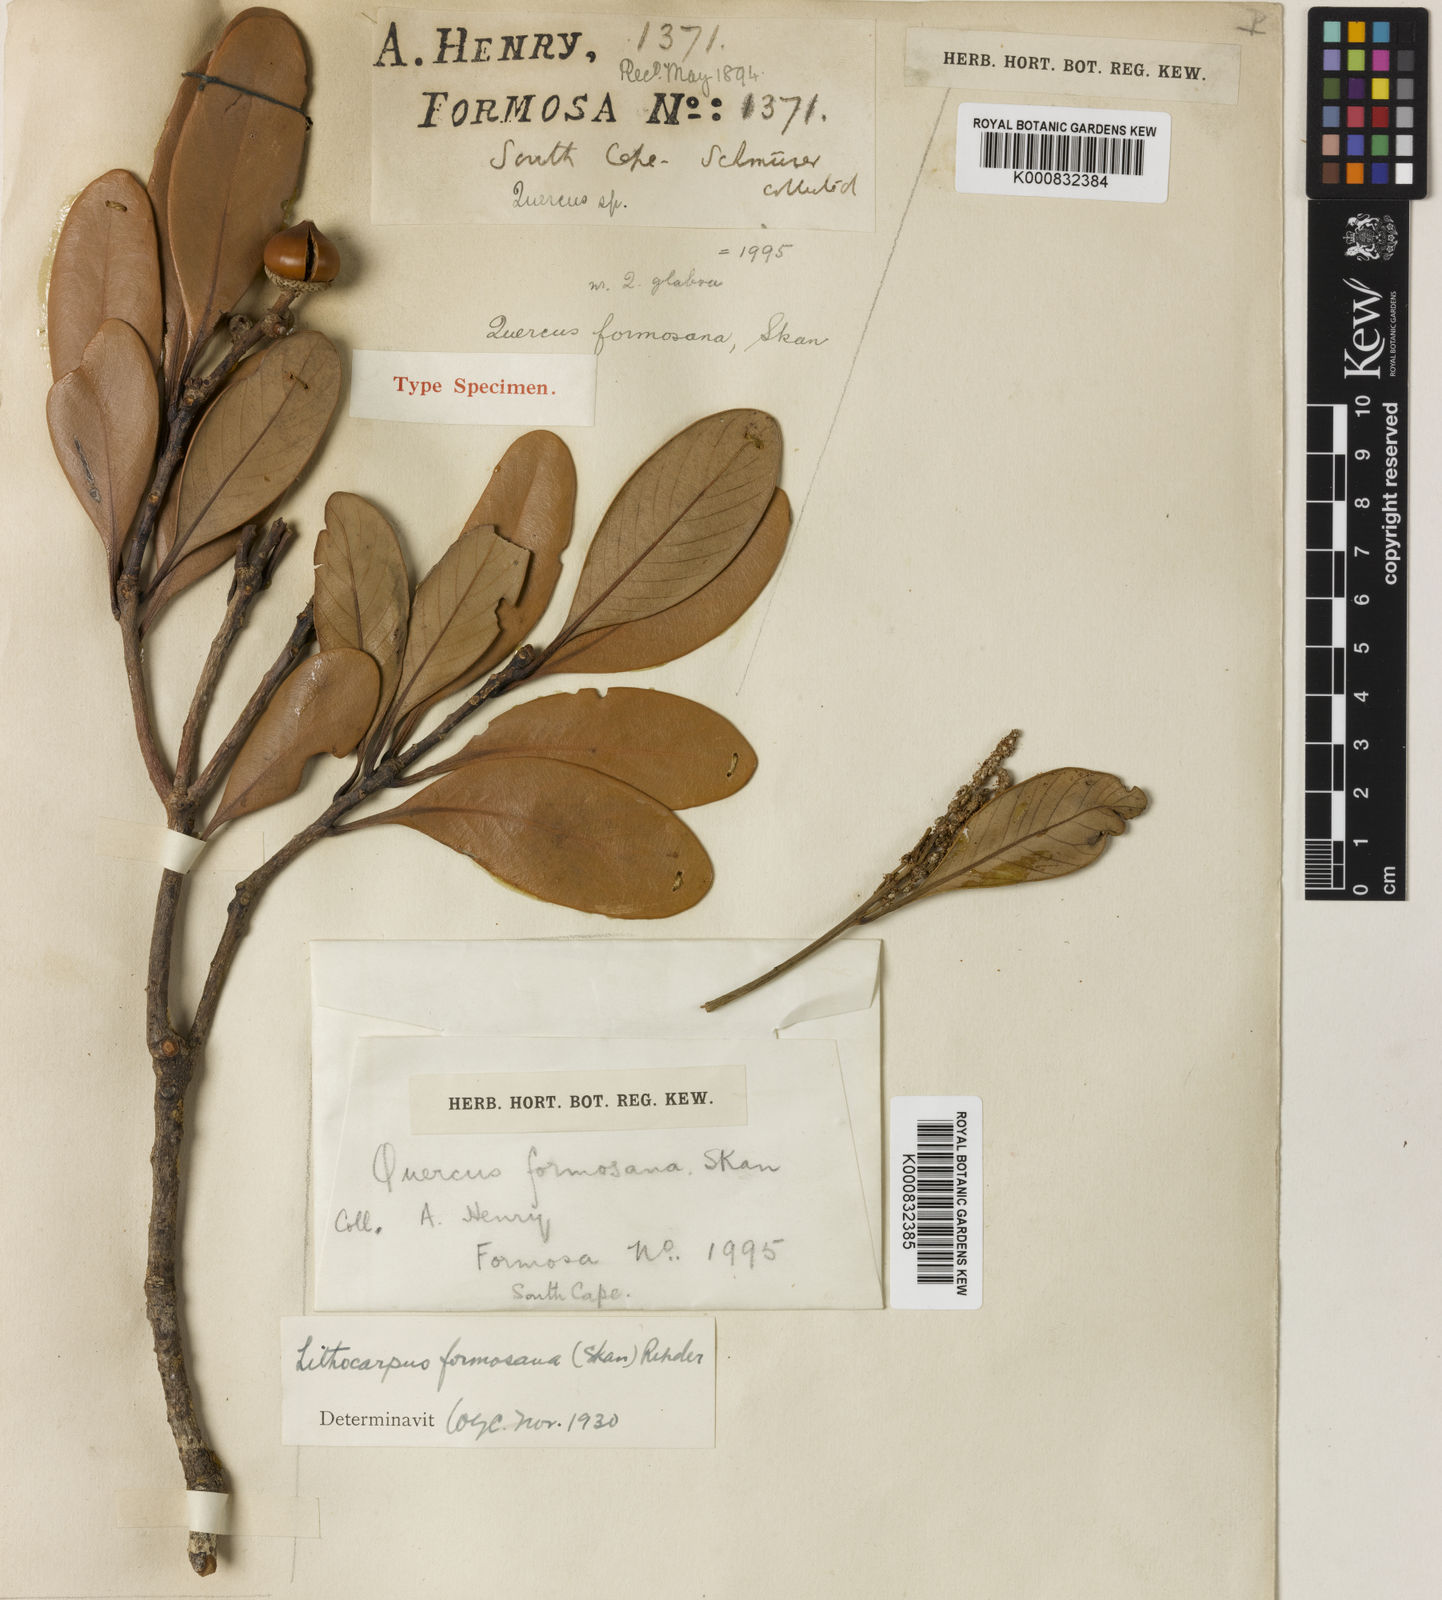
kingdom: Plantae
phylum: Tracheophyta
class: Magnoliopsida
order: Fagales
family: Fagaceae
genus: Lithocarpus
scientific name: Lithocarpus formosanus
